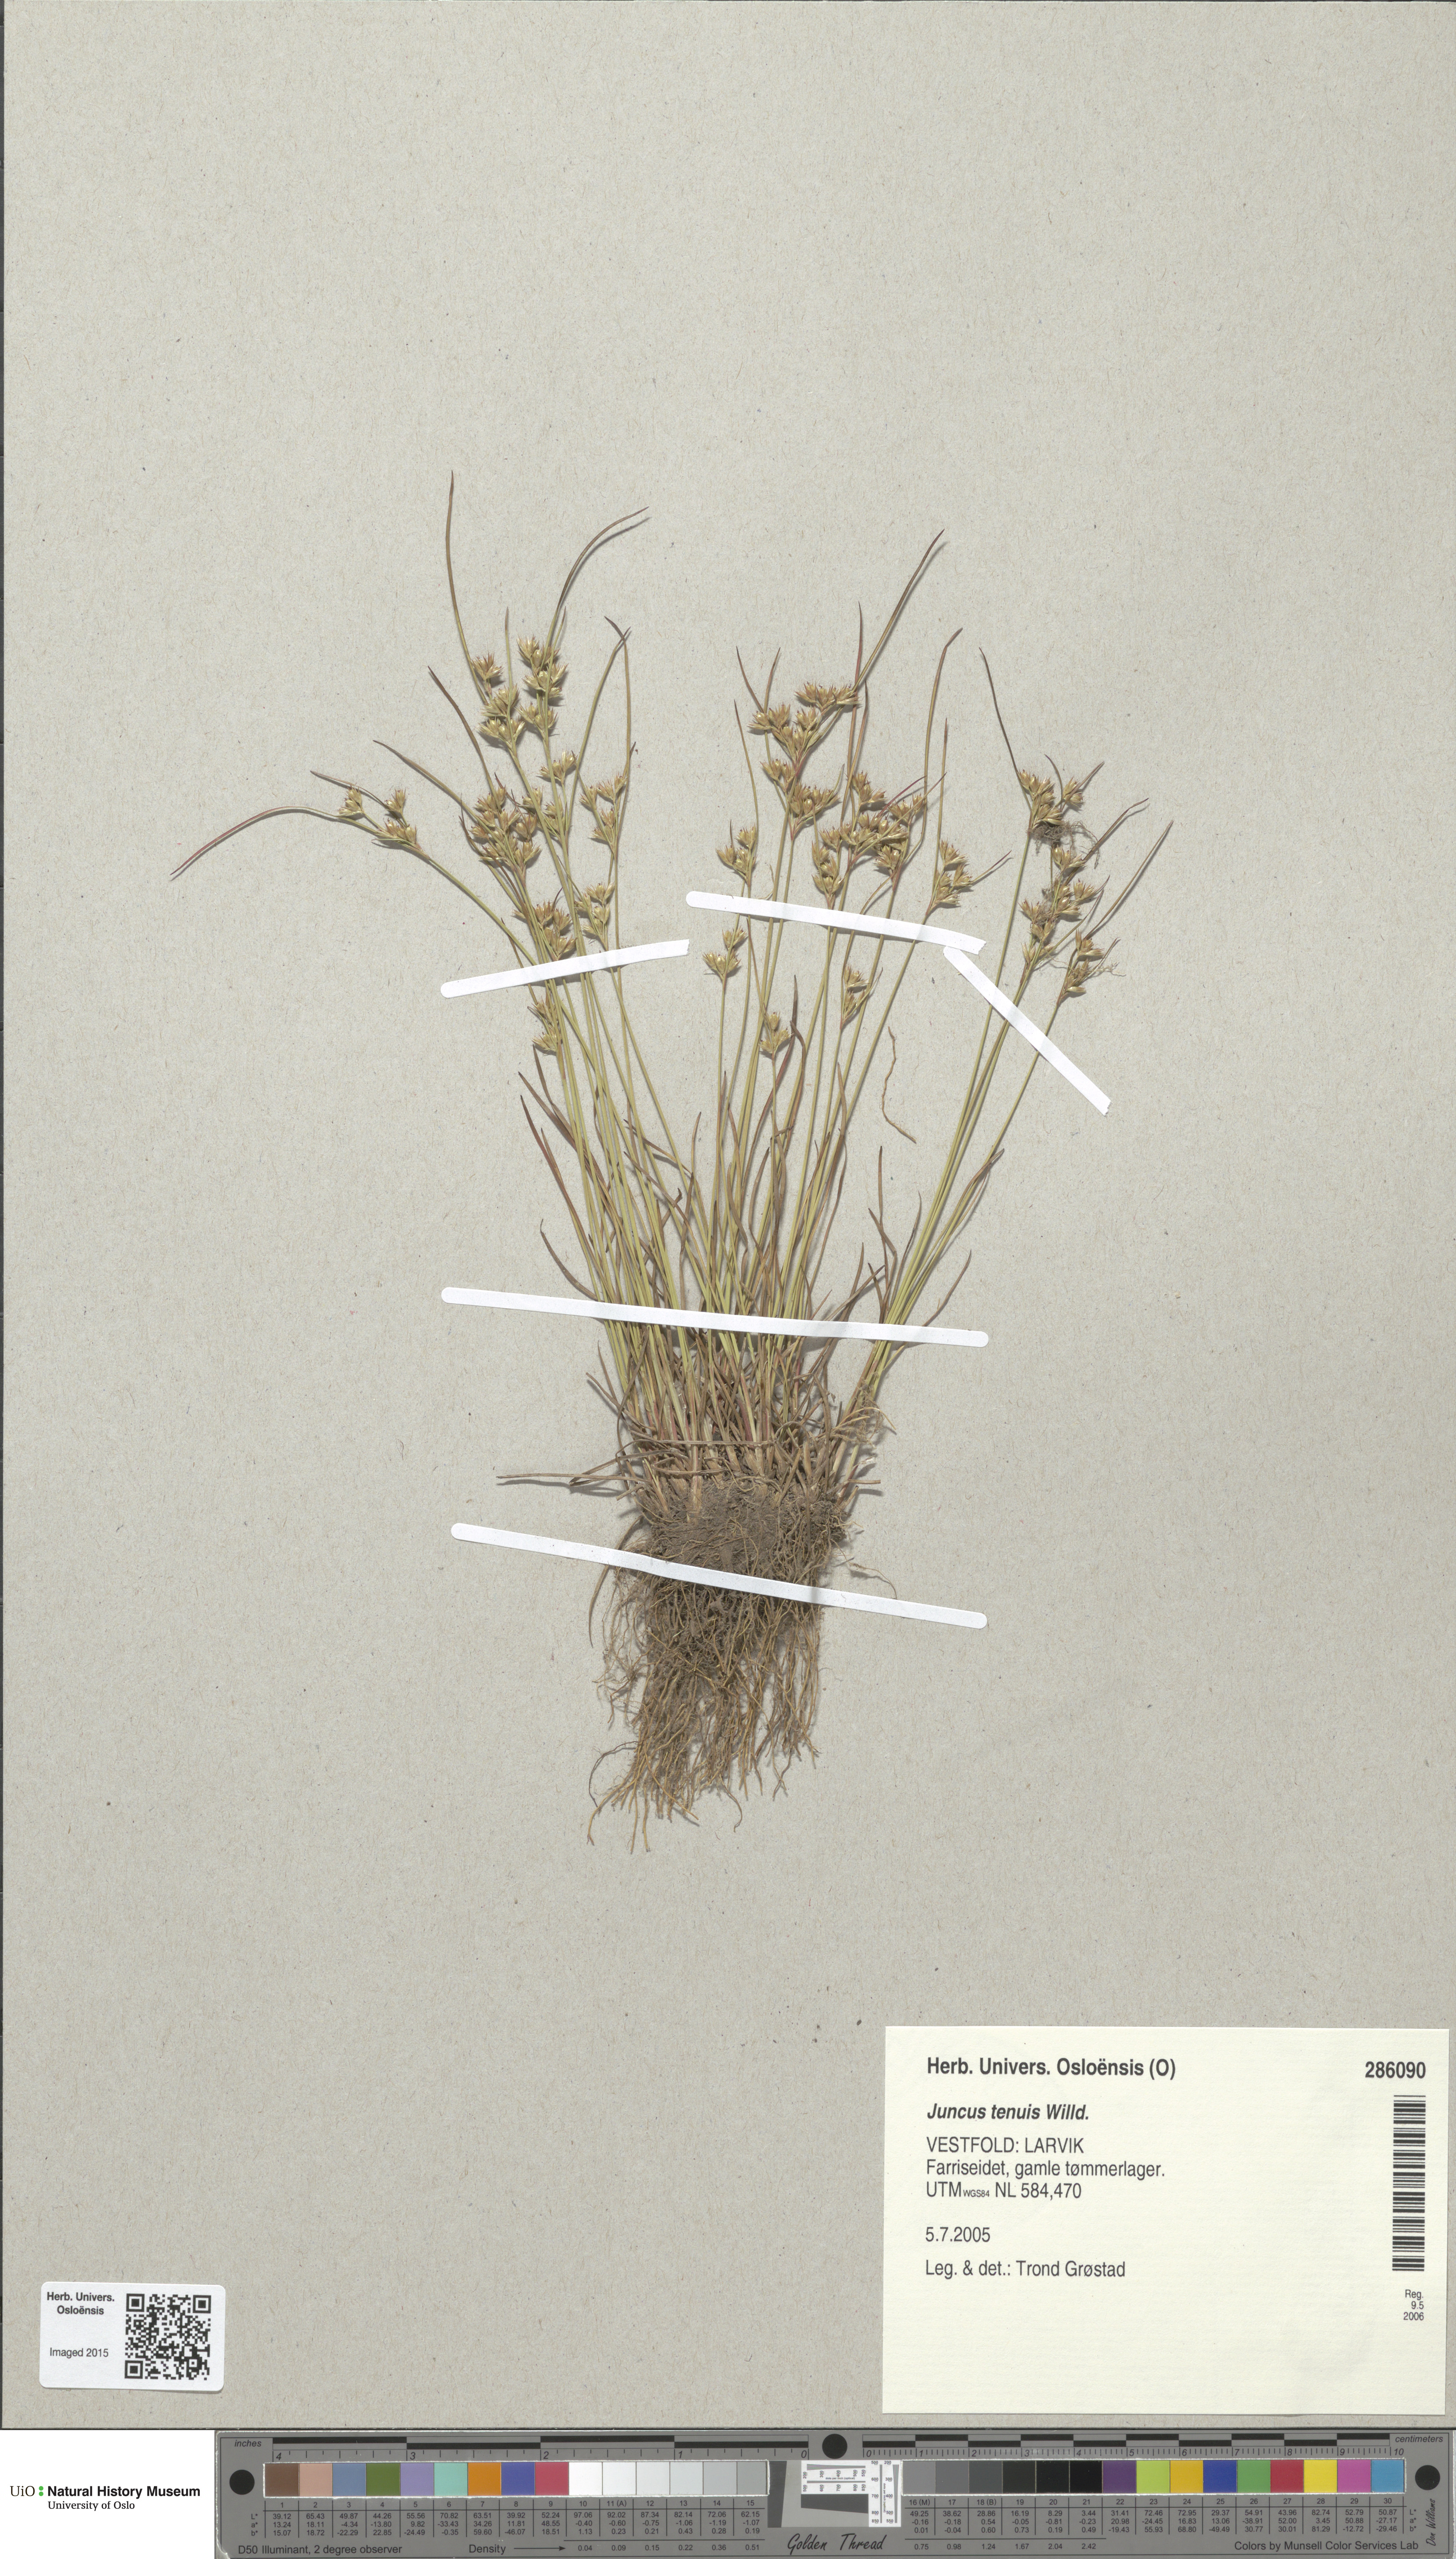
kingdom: Plantae
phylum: Tracheophyta
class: Liliopsida
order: Poales
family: Juncaceae
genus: Juncus
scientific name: Juncus tenuis
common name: Slender rush
